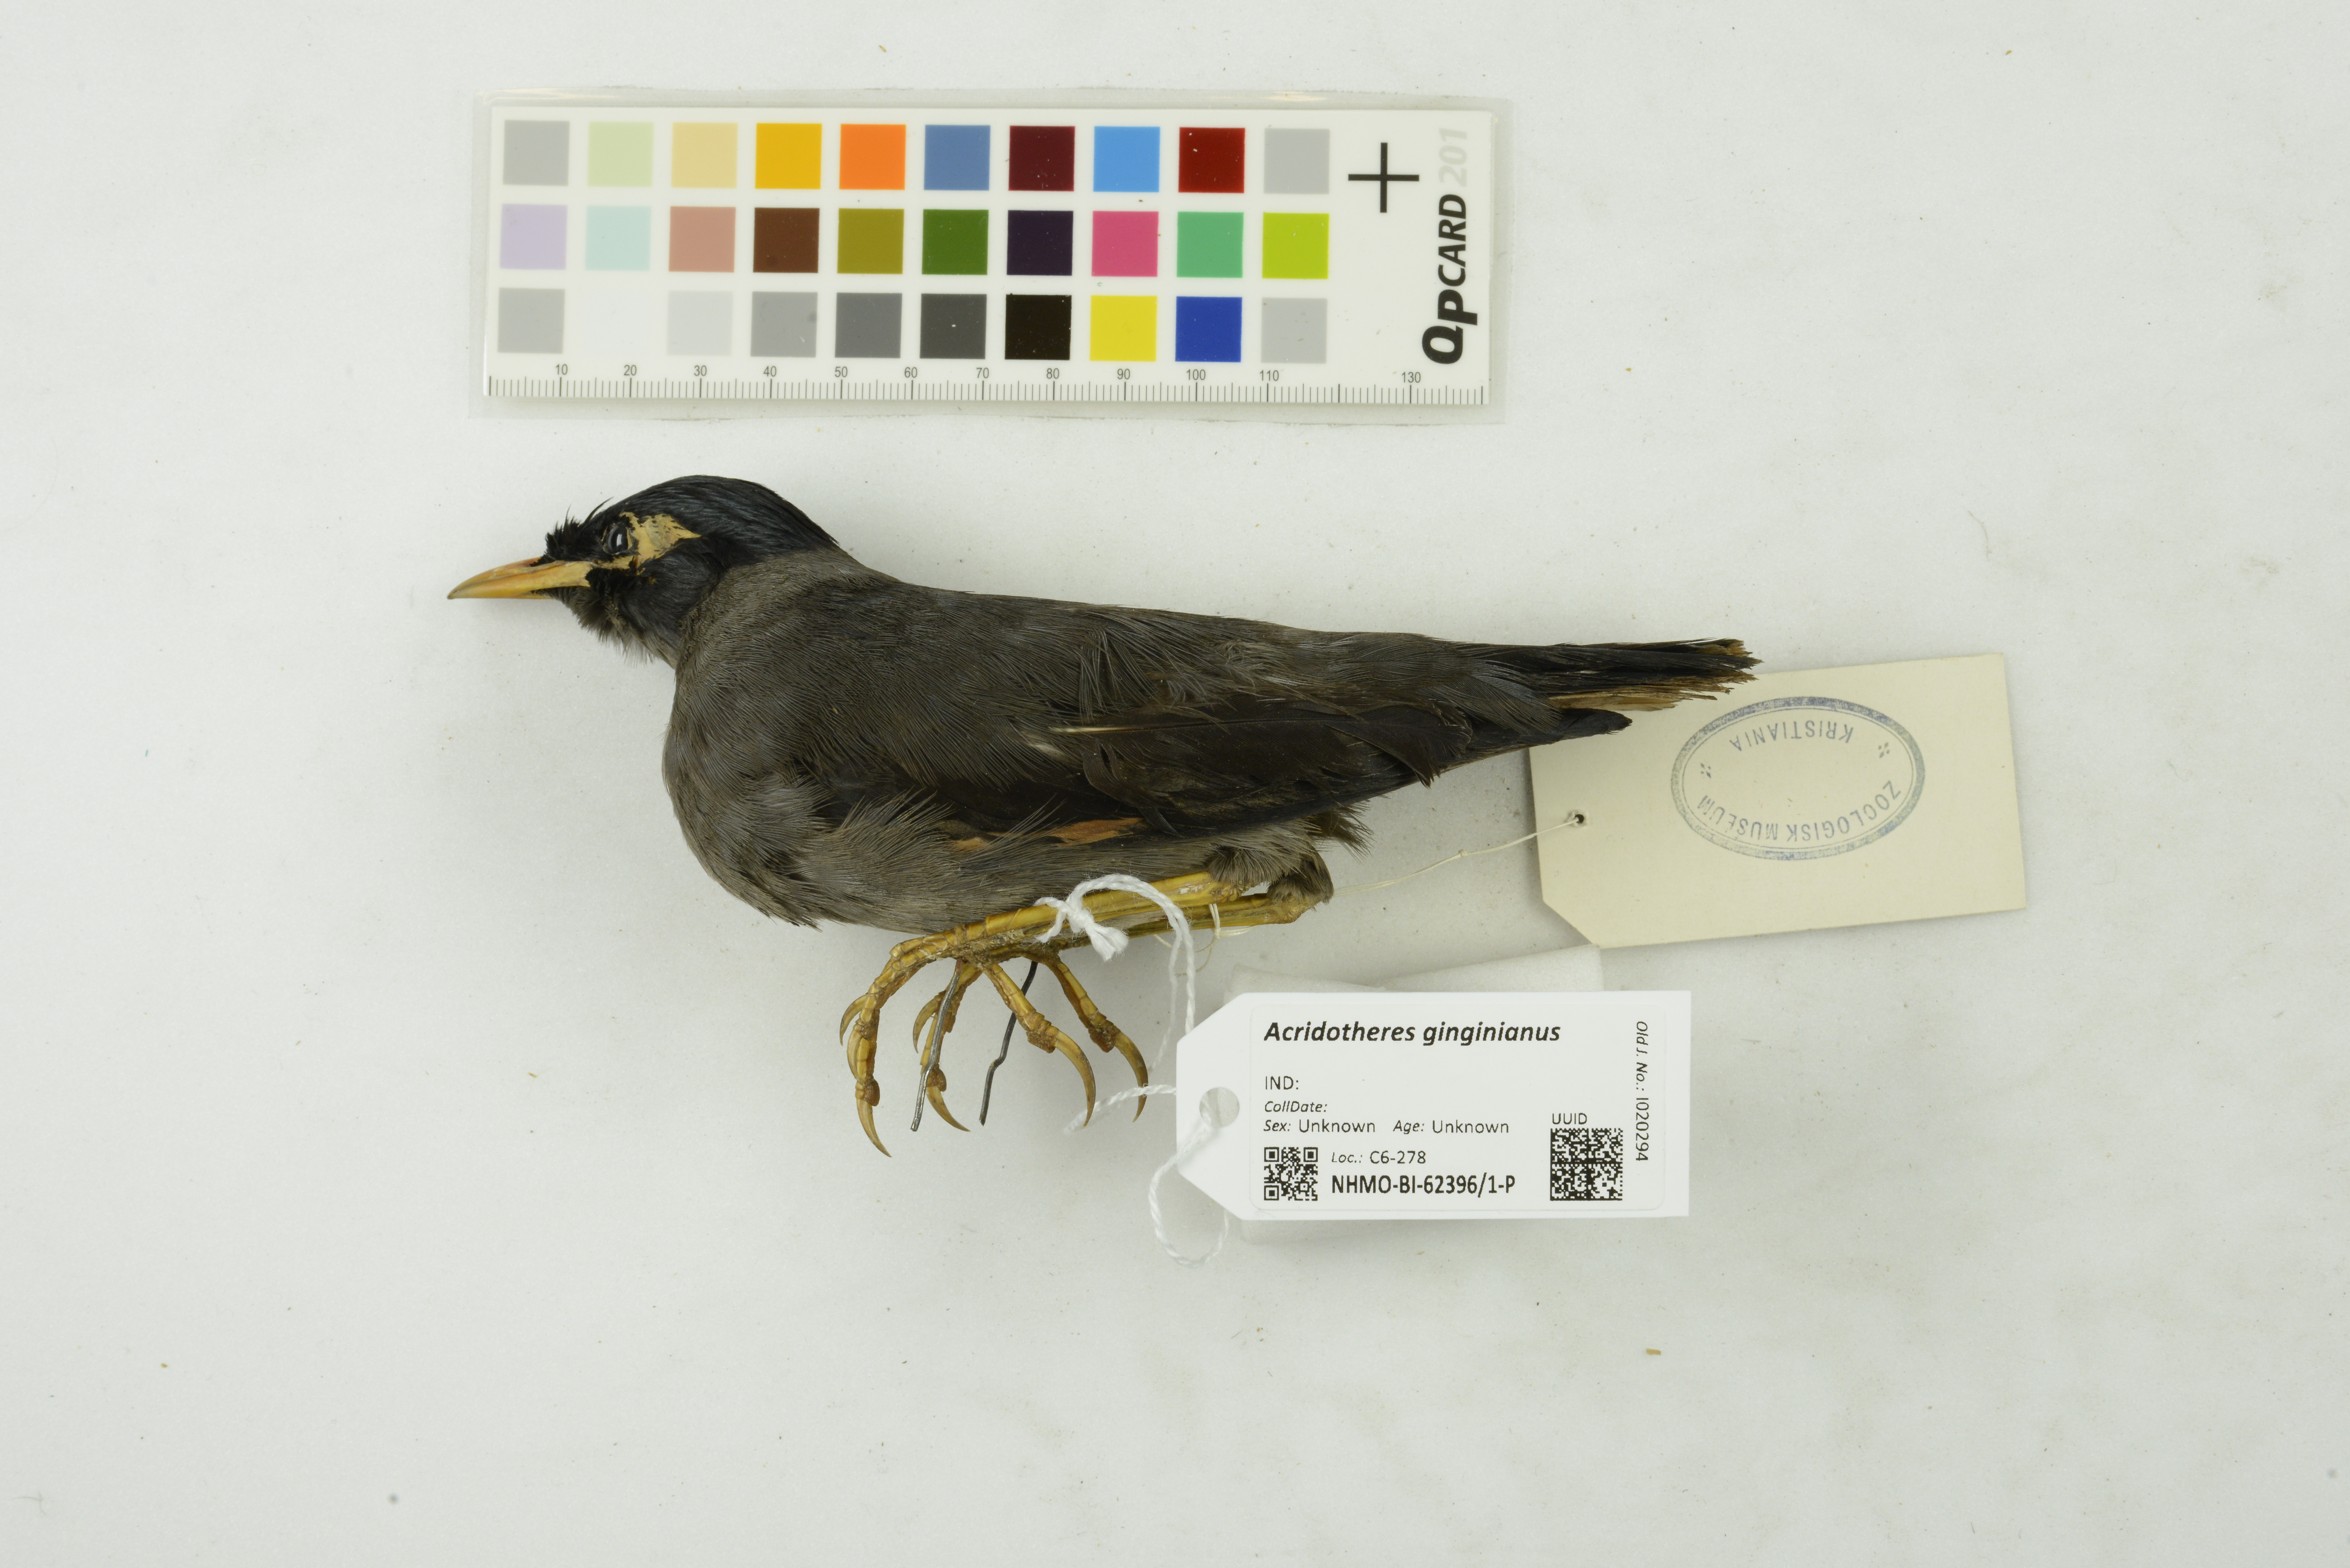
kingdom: Animalia
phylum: Chordata
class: Aves
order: Passeriformes
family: Sturnidae
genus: Acridotheres
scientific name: Acridotheres ginginianus
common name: Bank myna
